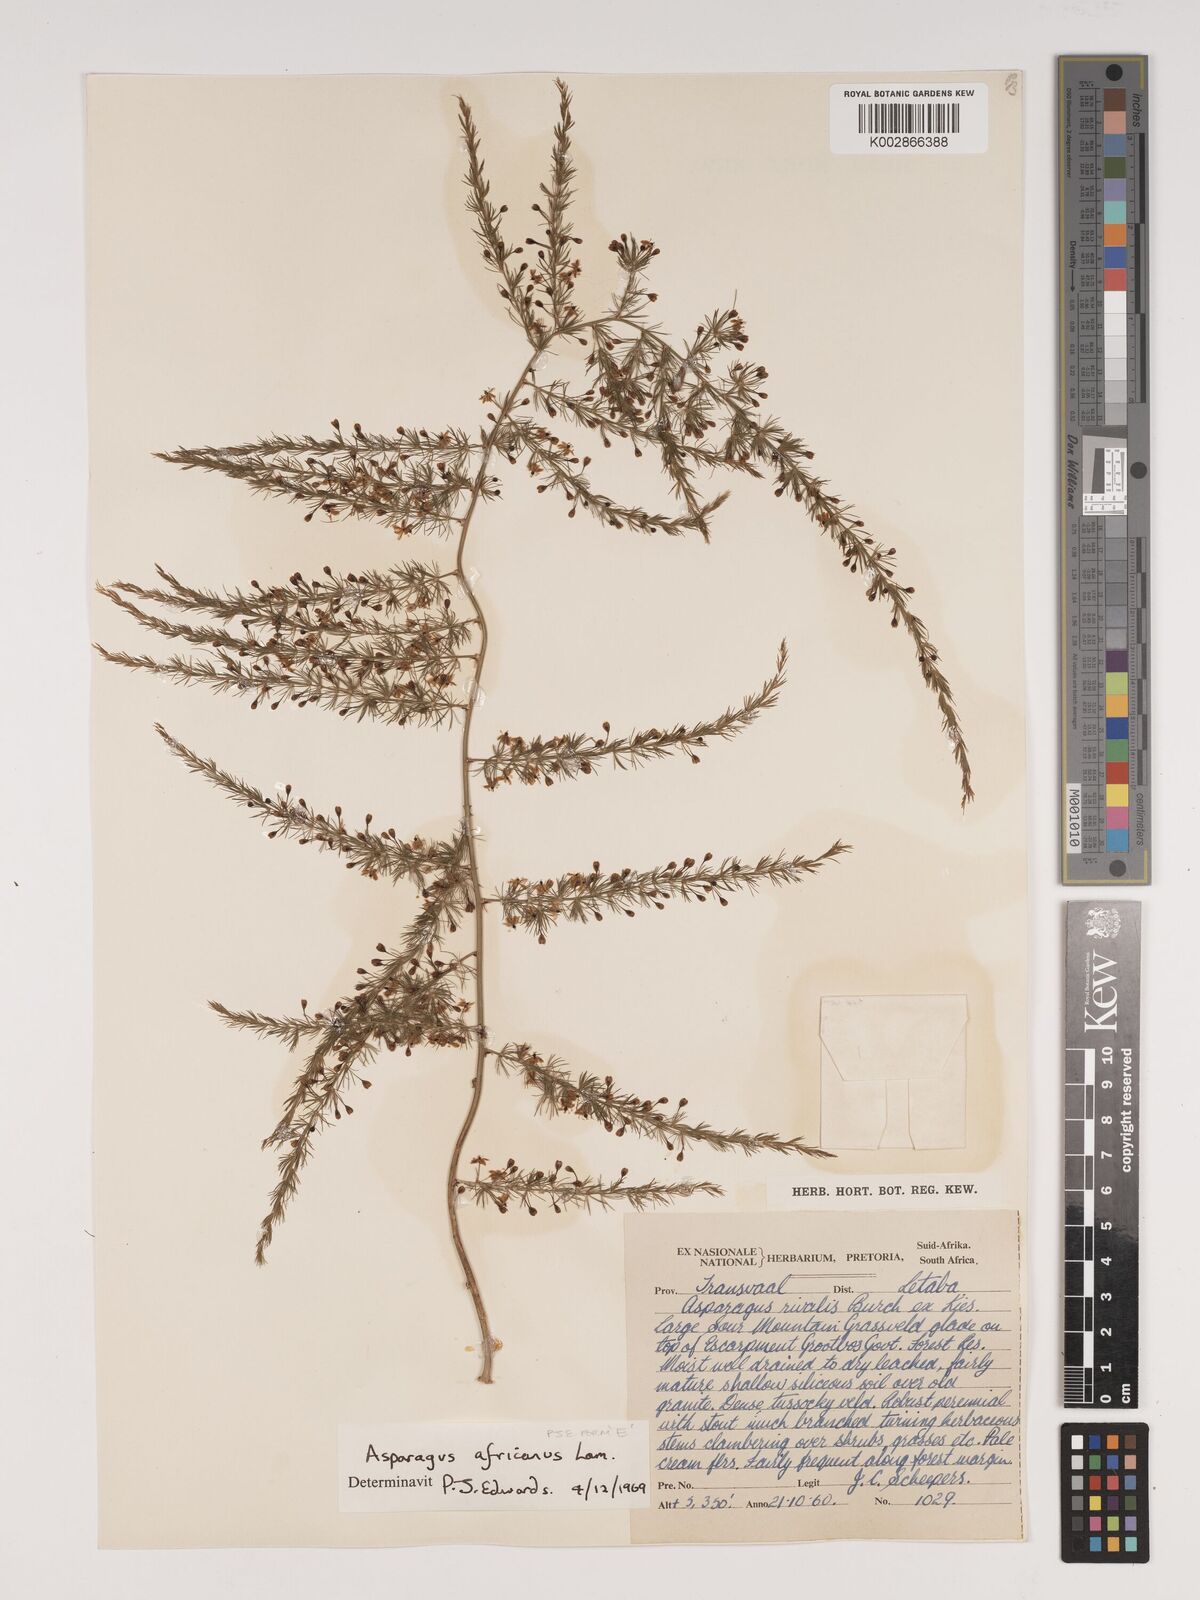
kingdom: Plantae
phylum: Tracheophyta
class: Liliopsida
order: Asparagales
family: Asparagaceae
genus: Asparagus
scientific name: Asparagus africanus
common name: Asparagus-fern
